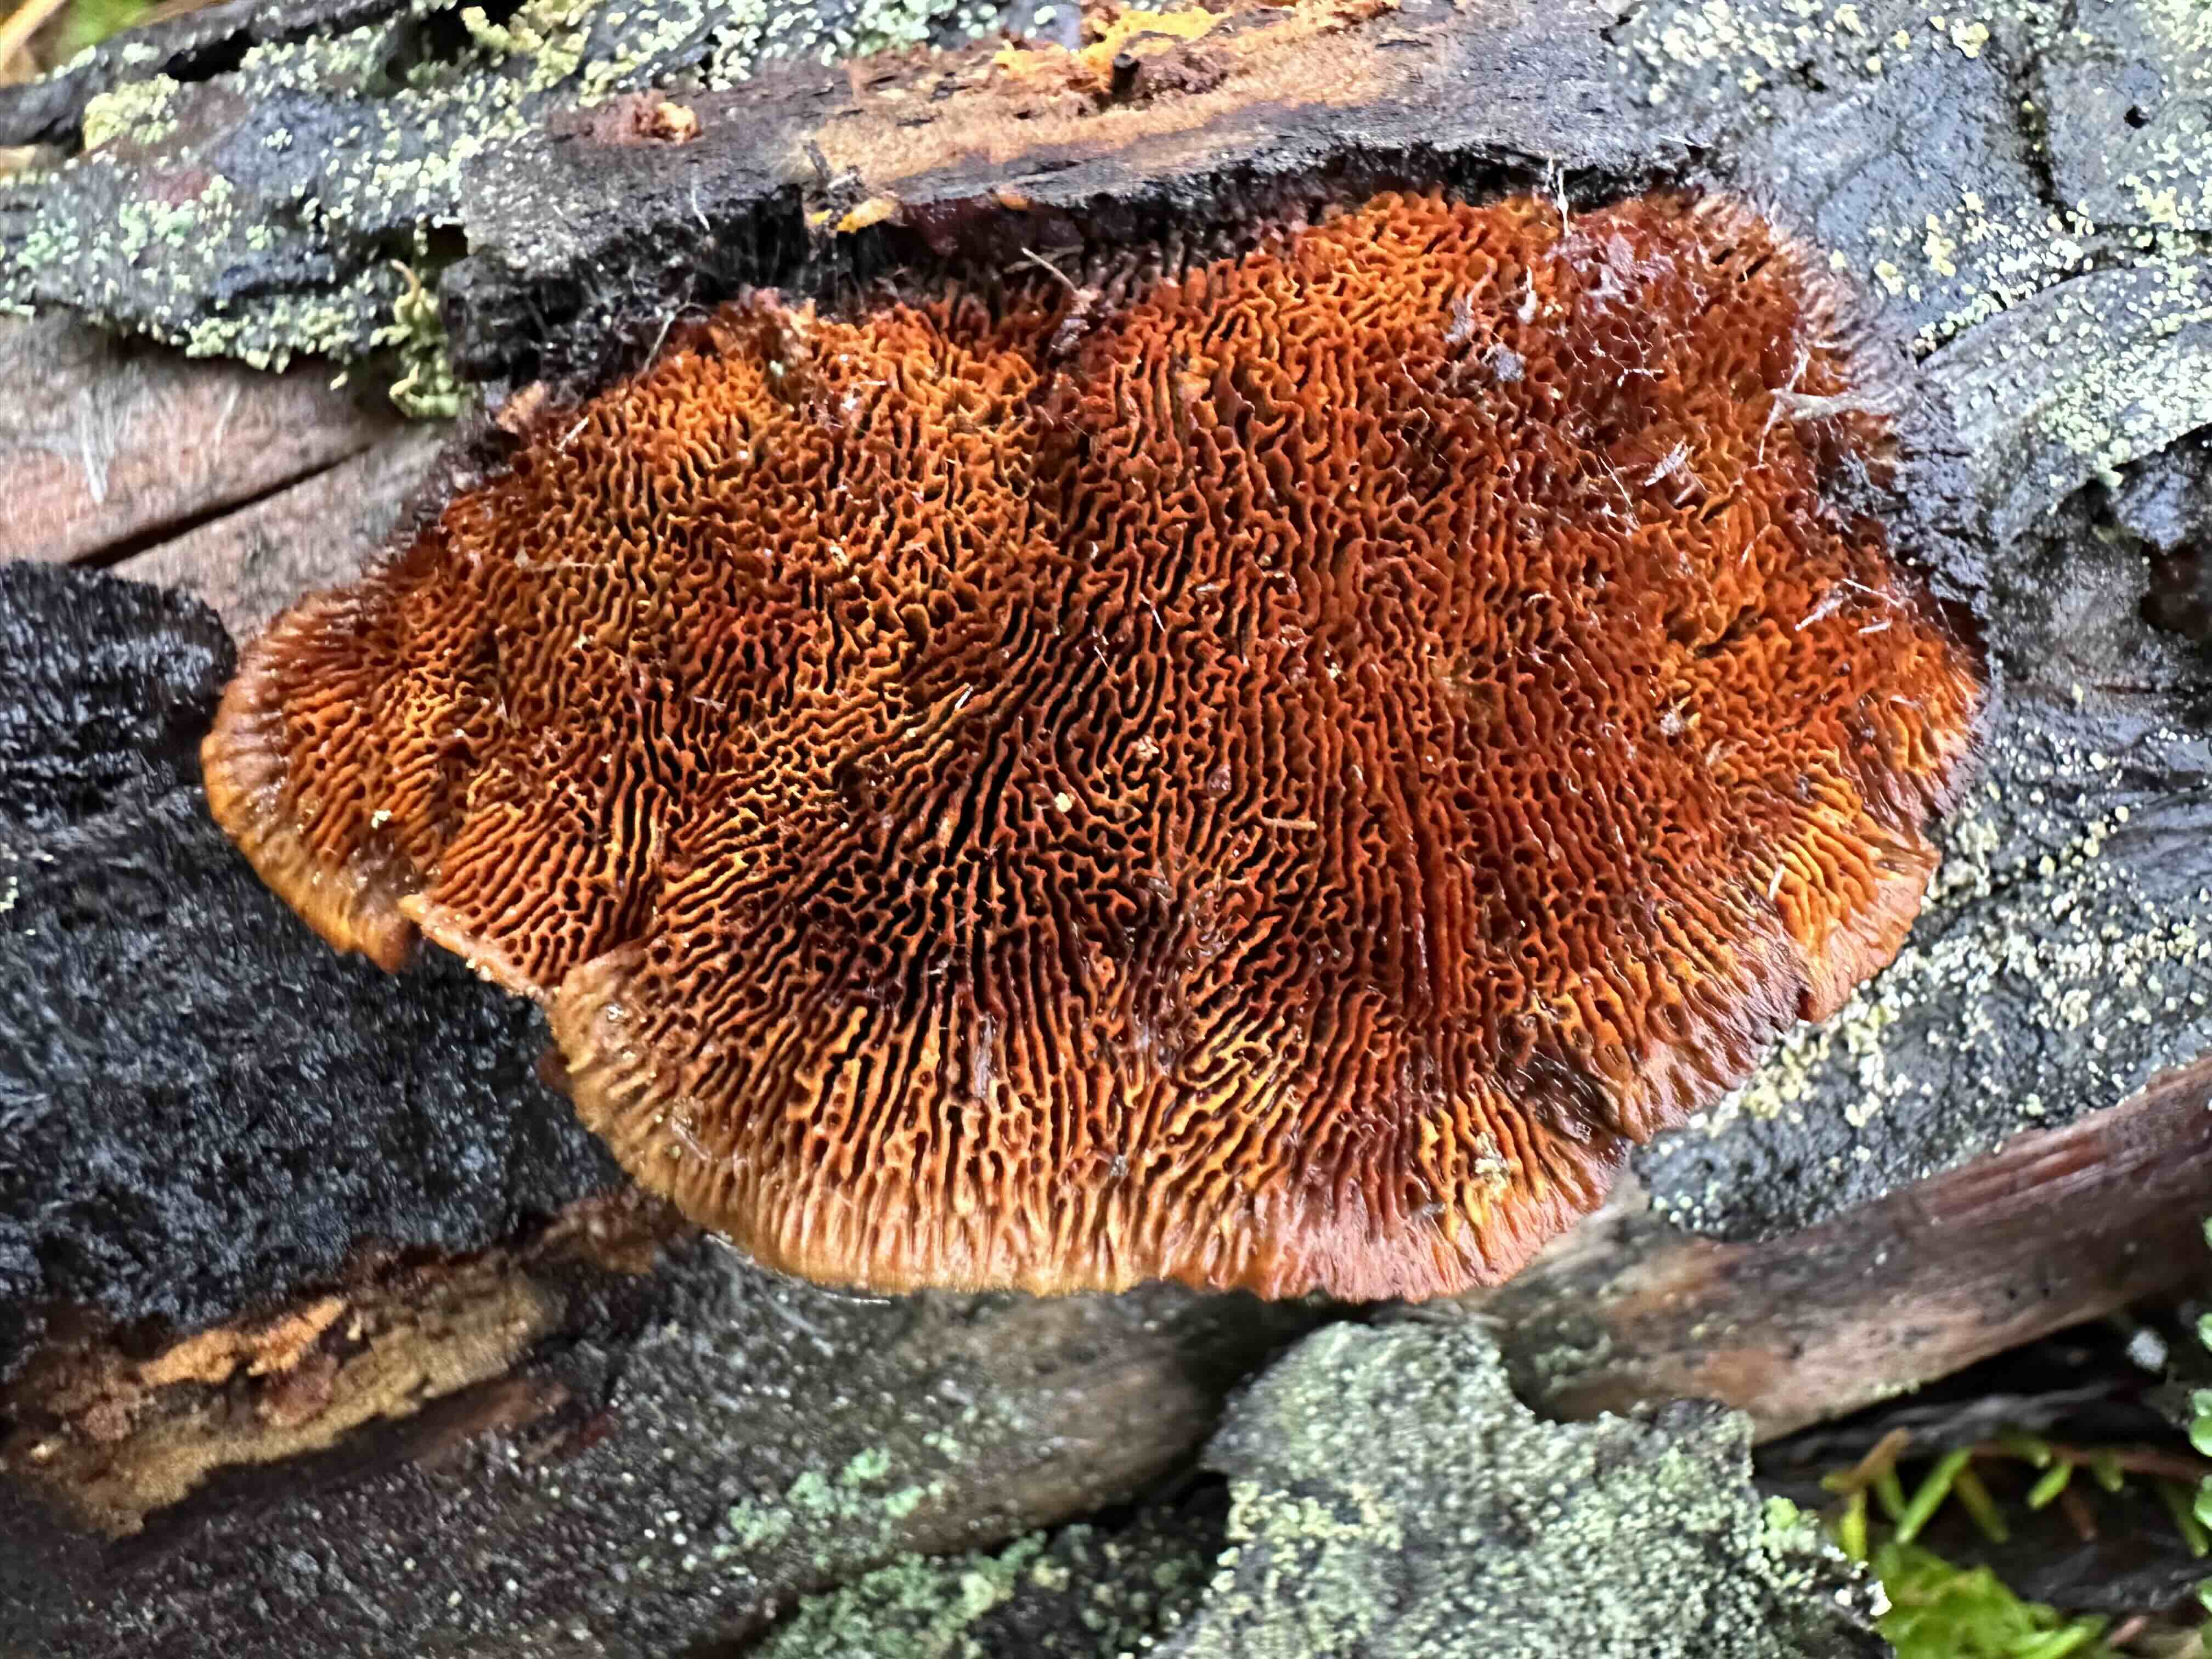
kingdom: Fungi
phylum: Basidiomycota
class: Agaricomycetes
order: Gloeophyllales
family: Gloeophyllaceae
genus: Gloeophyllum
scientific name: Gloeophyllum sepiarium
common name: fyrre-korkhat
